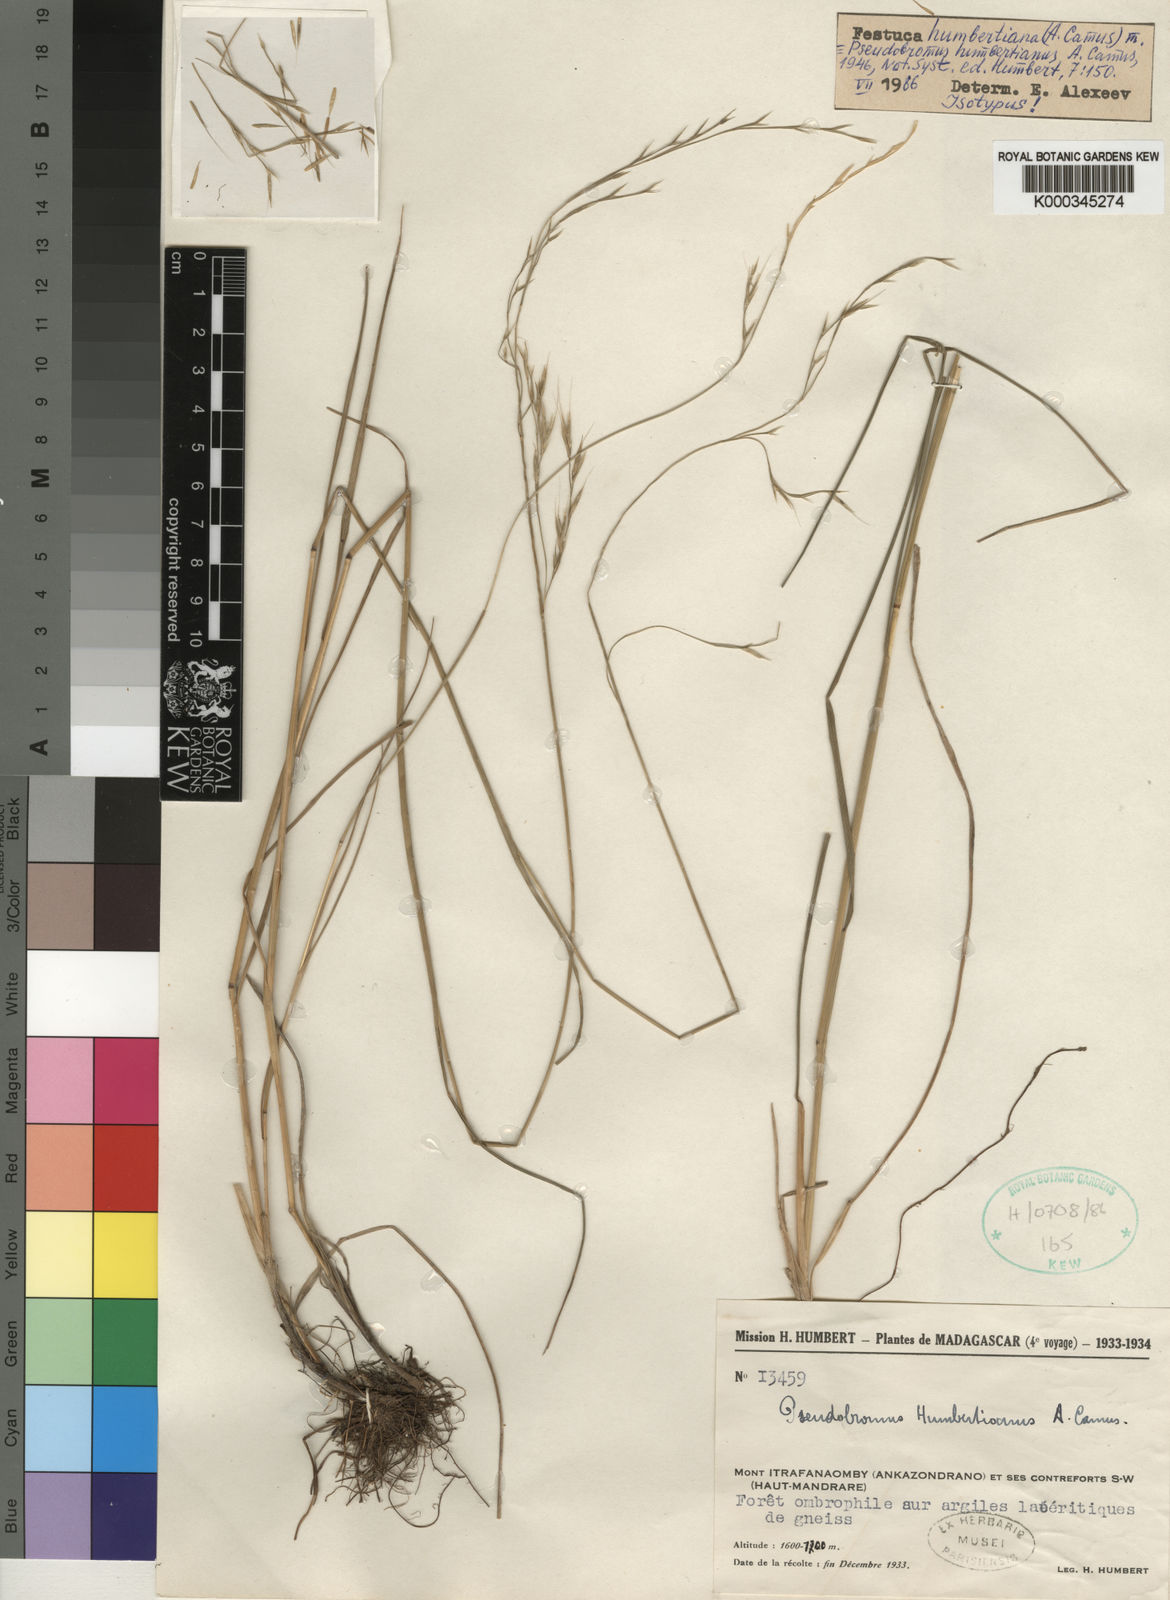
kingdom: Plantae
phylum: Tracheophyta
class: Liliopsida
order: Poales
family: Poaceae
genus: Festuca
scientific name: Festuca
